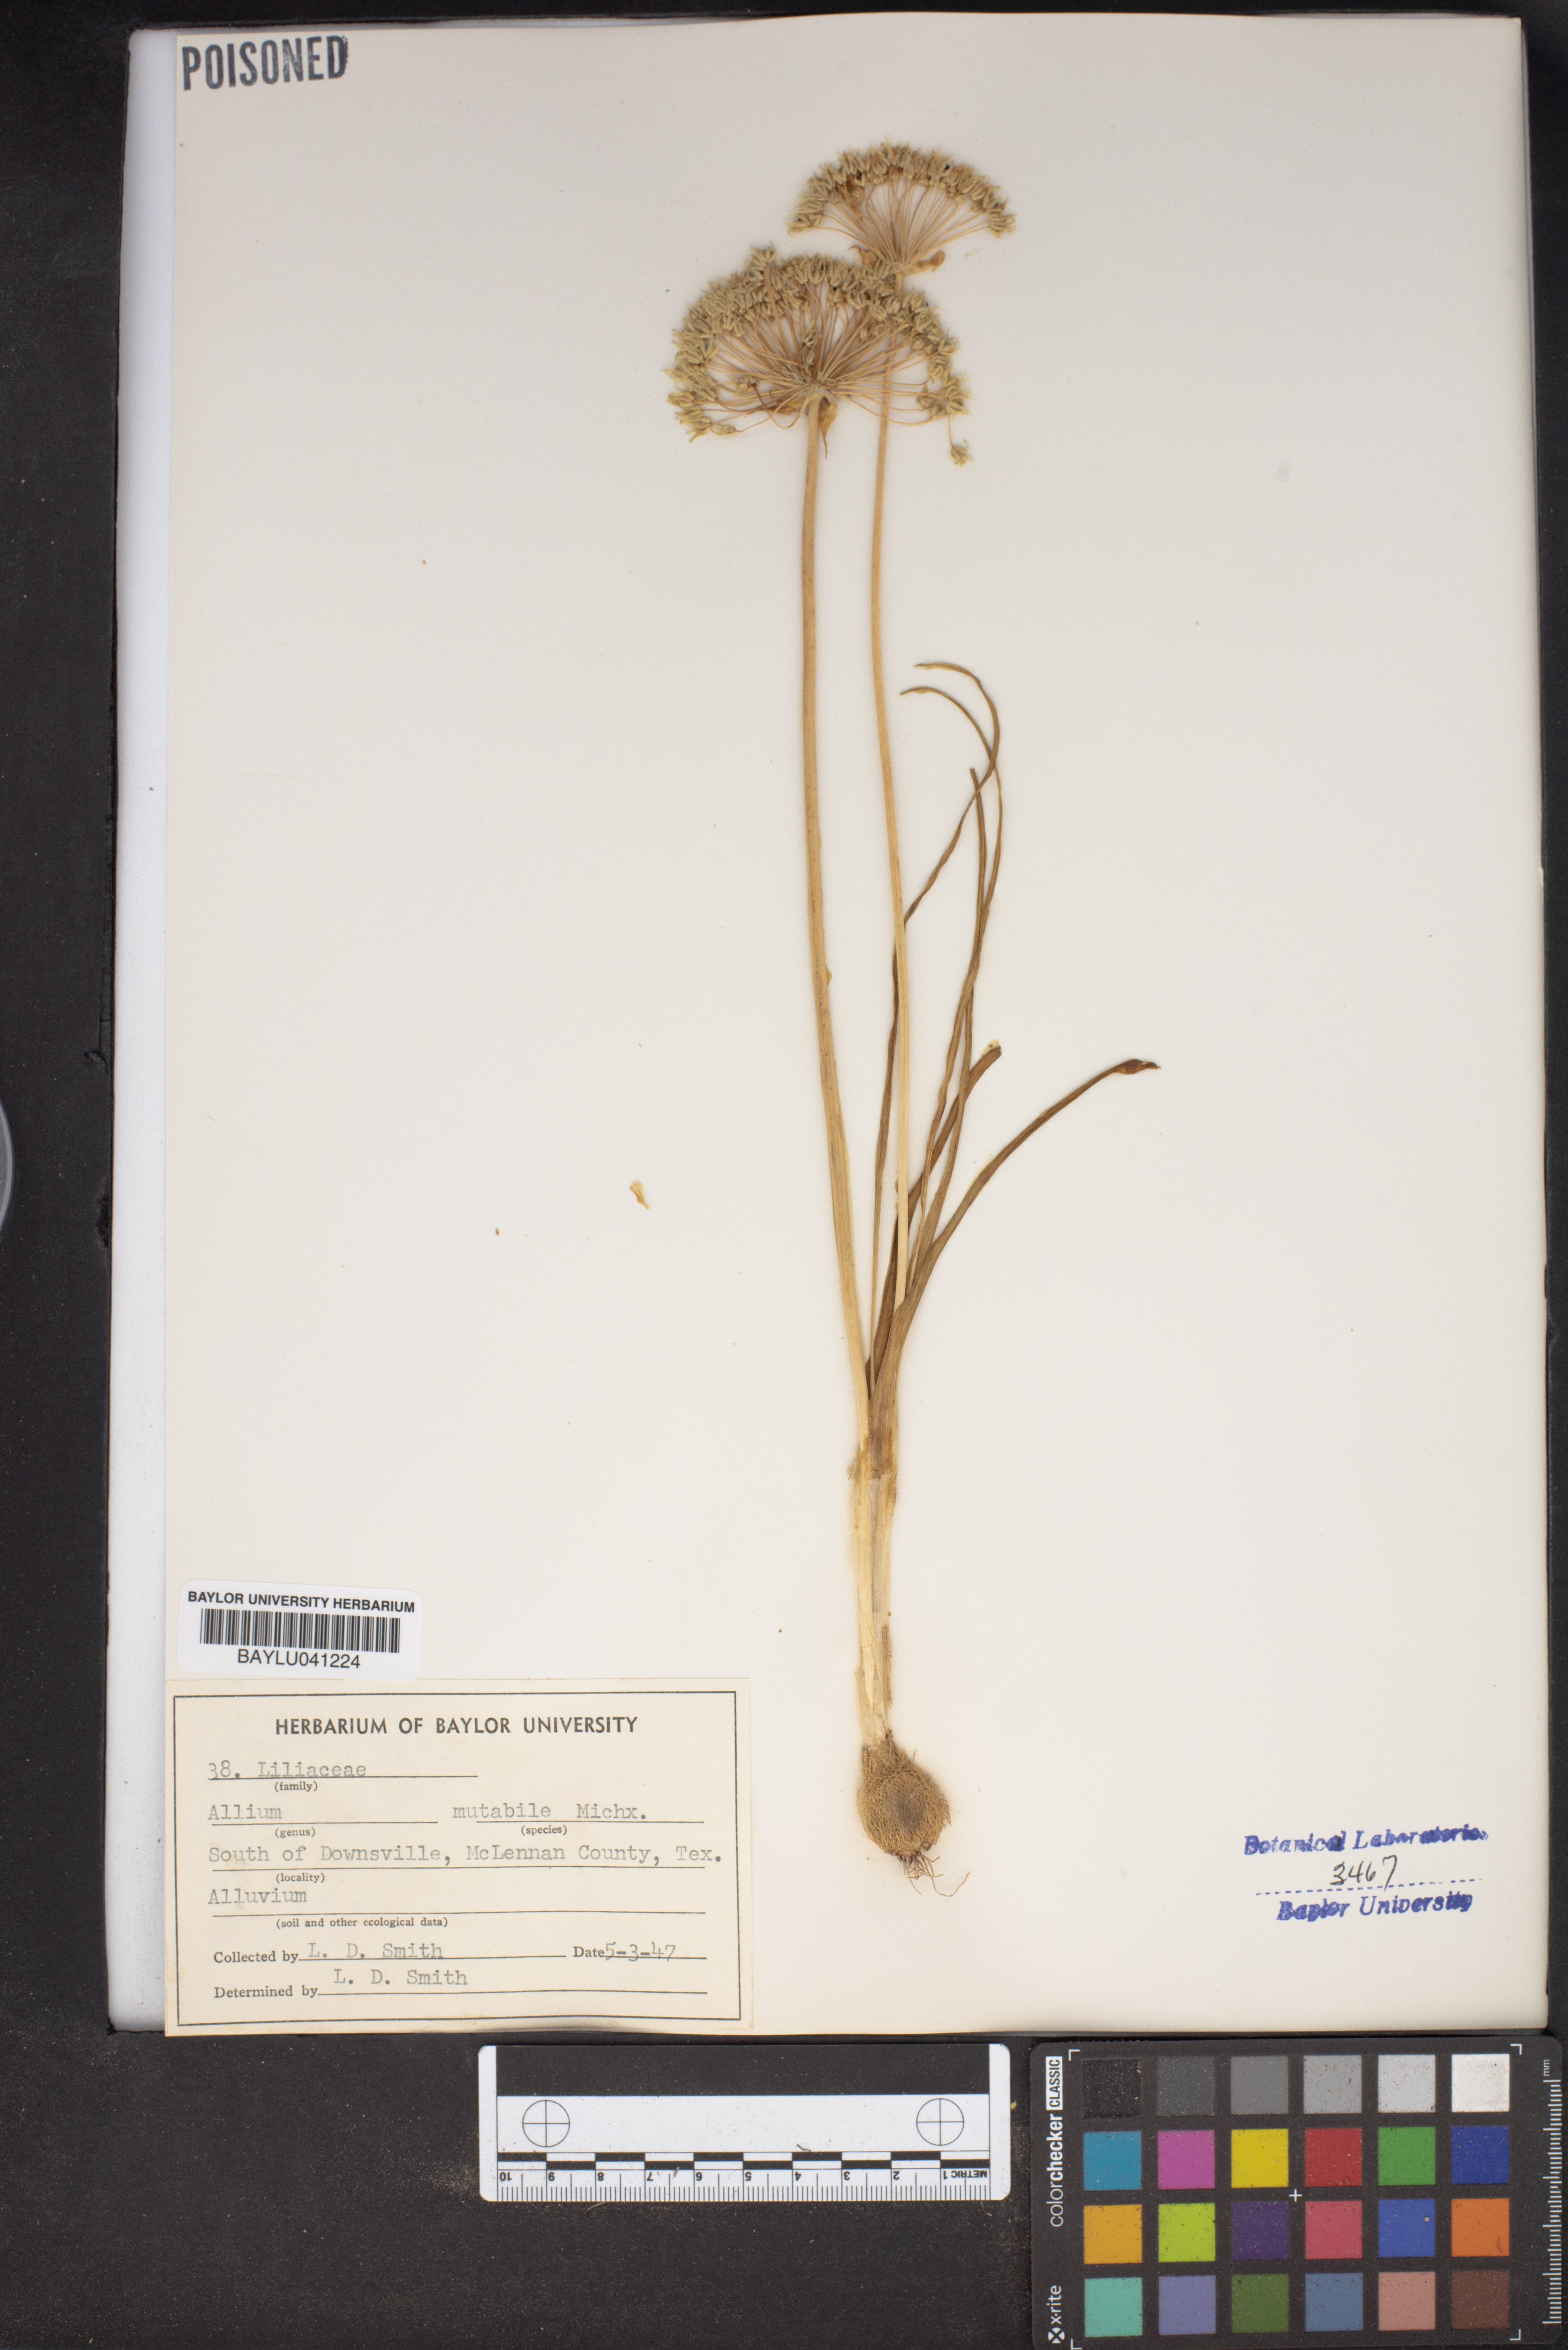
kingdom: Plantae
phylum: Tracheophyta
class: Liliopsida
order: Asparagales
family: Amaryllidaceae
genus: Allium
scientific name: Allium canadense
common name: Meadow garlic
